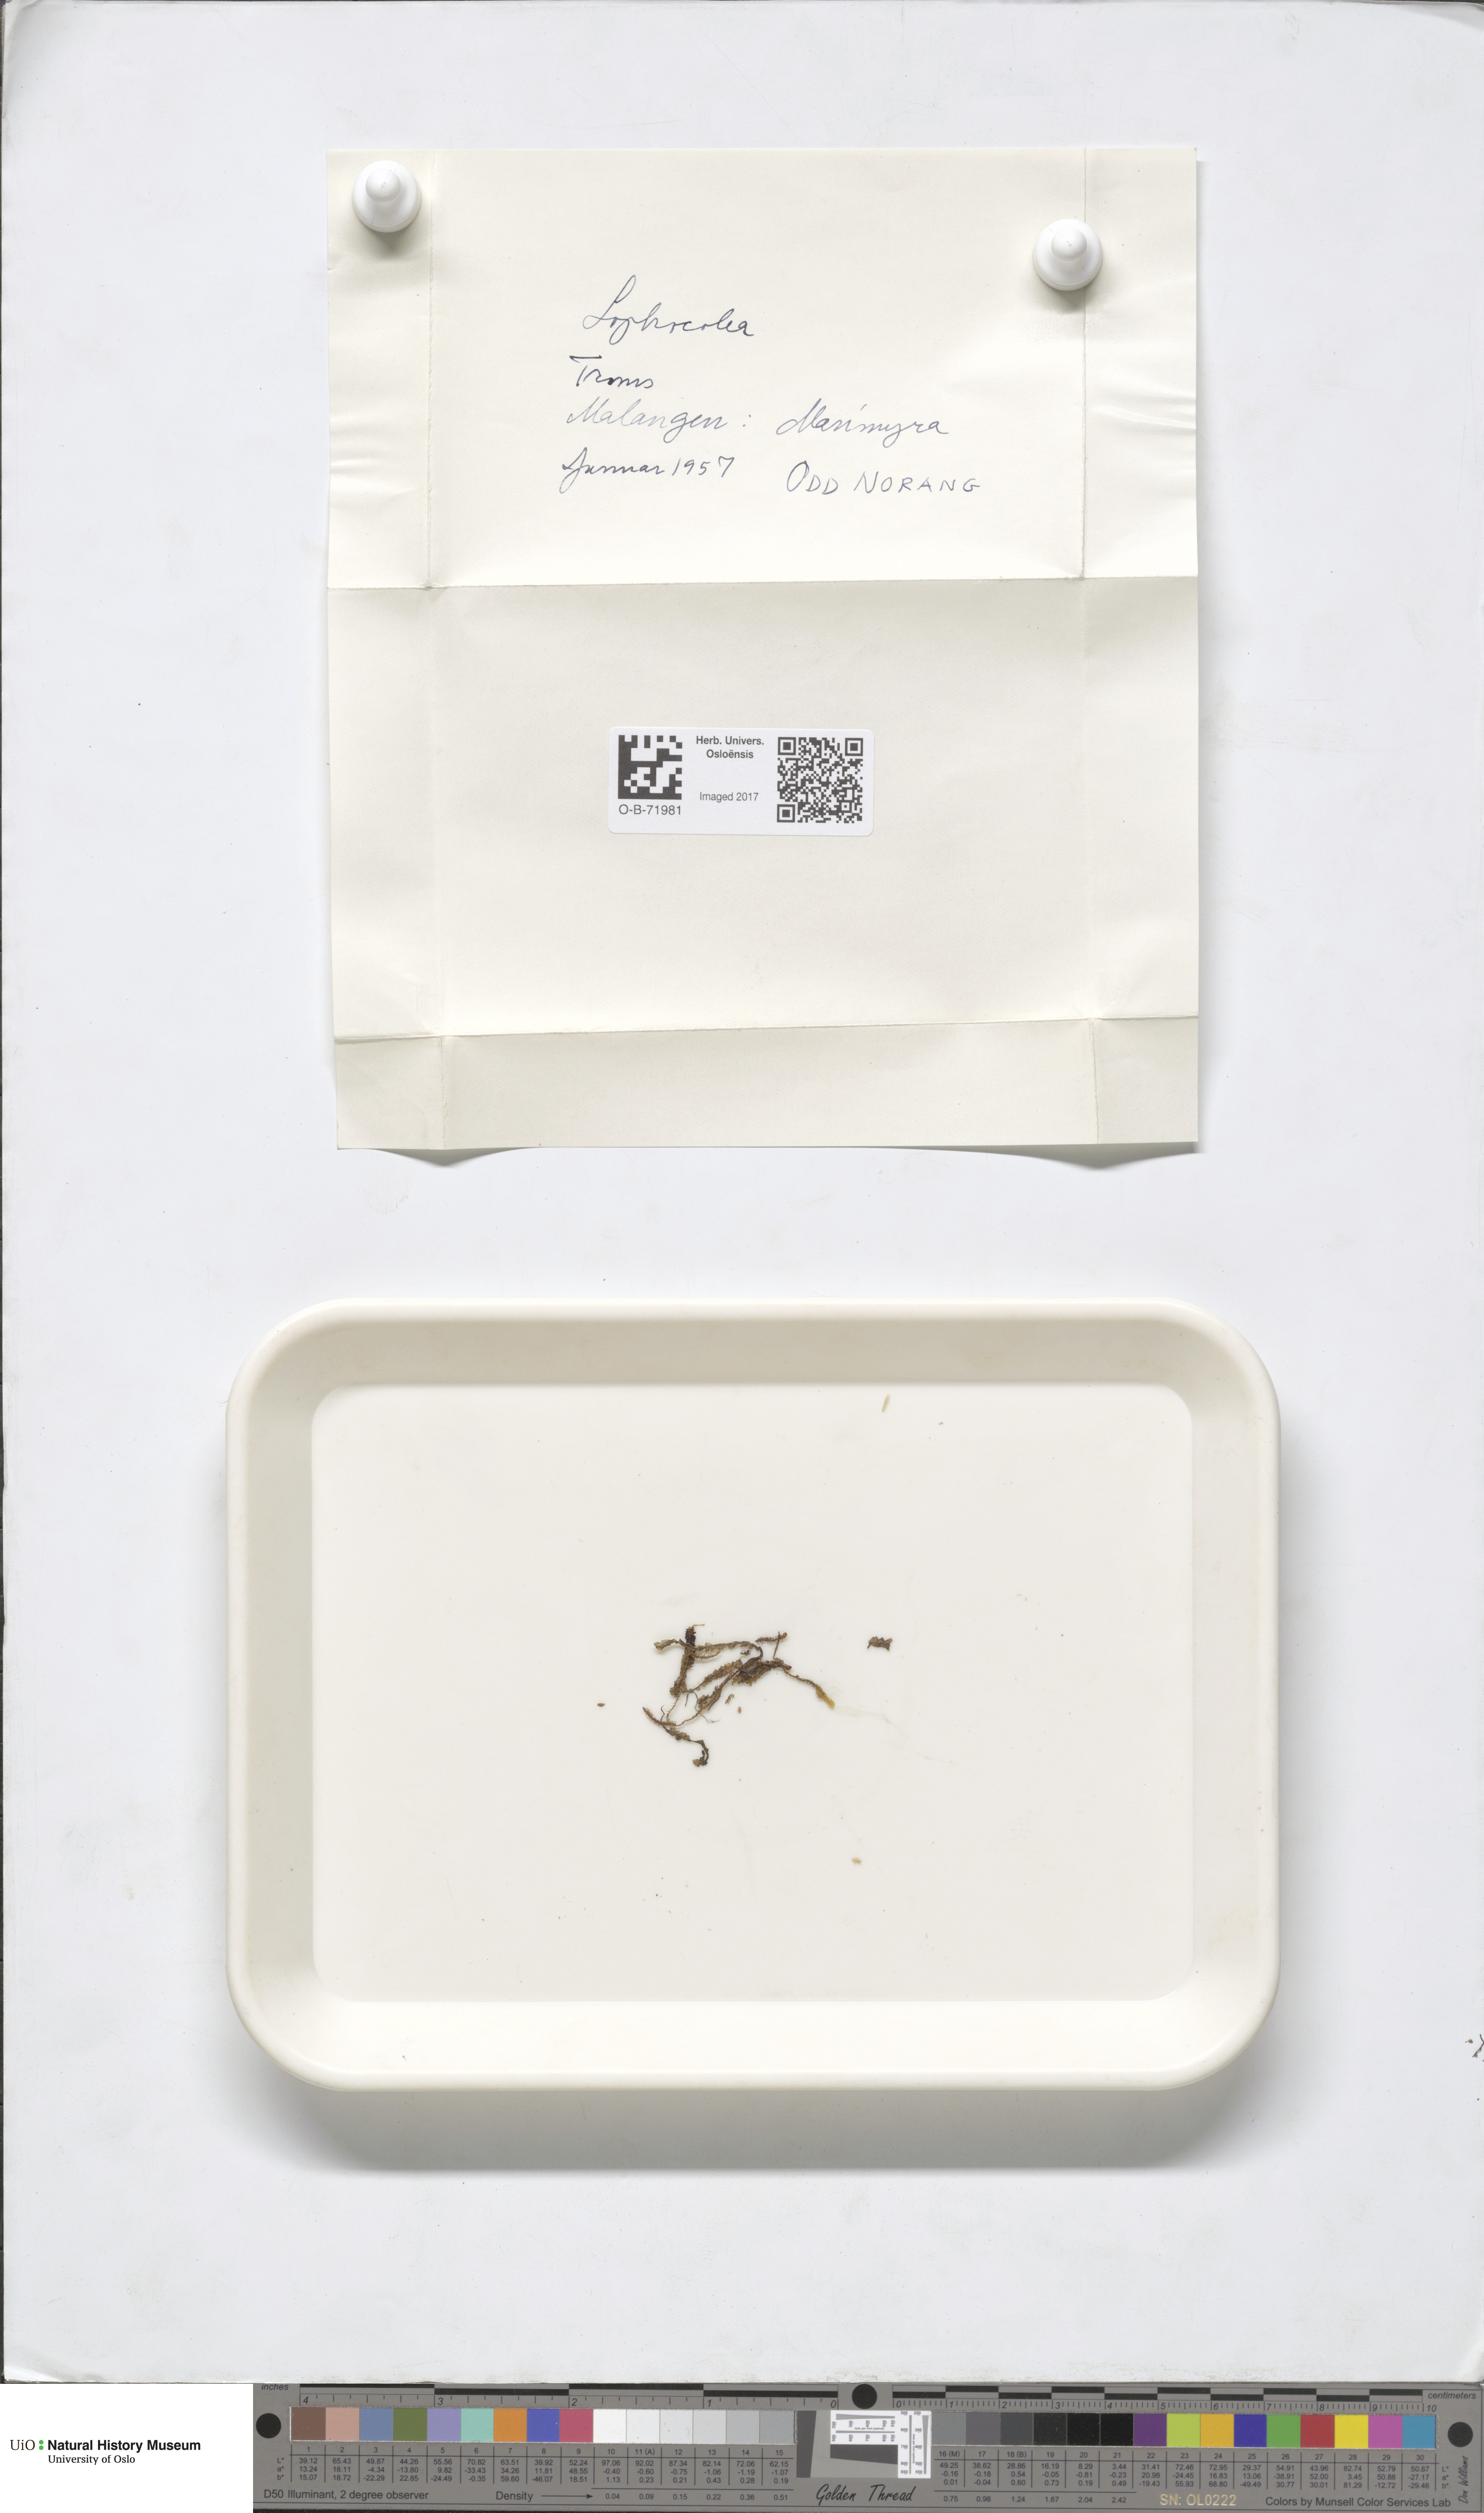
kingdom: Plantae
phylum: Marchantiophyta
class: Jungermanniopsida
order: Jungermanniales
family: Lophocoleaceae
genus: Lophocolea
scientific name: Lophocolea coadunata
